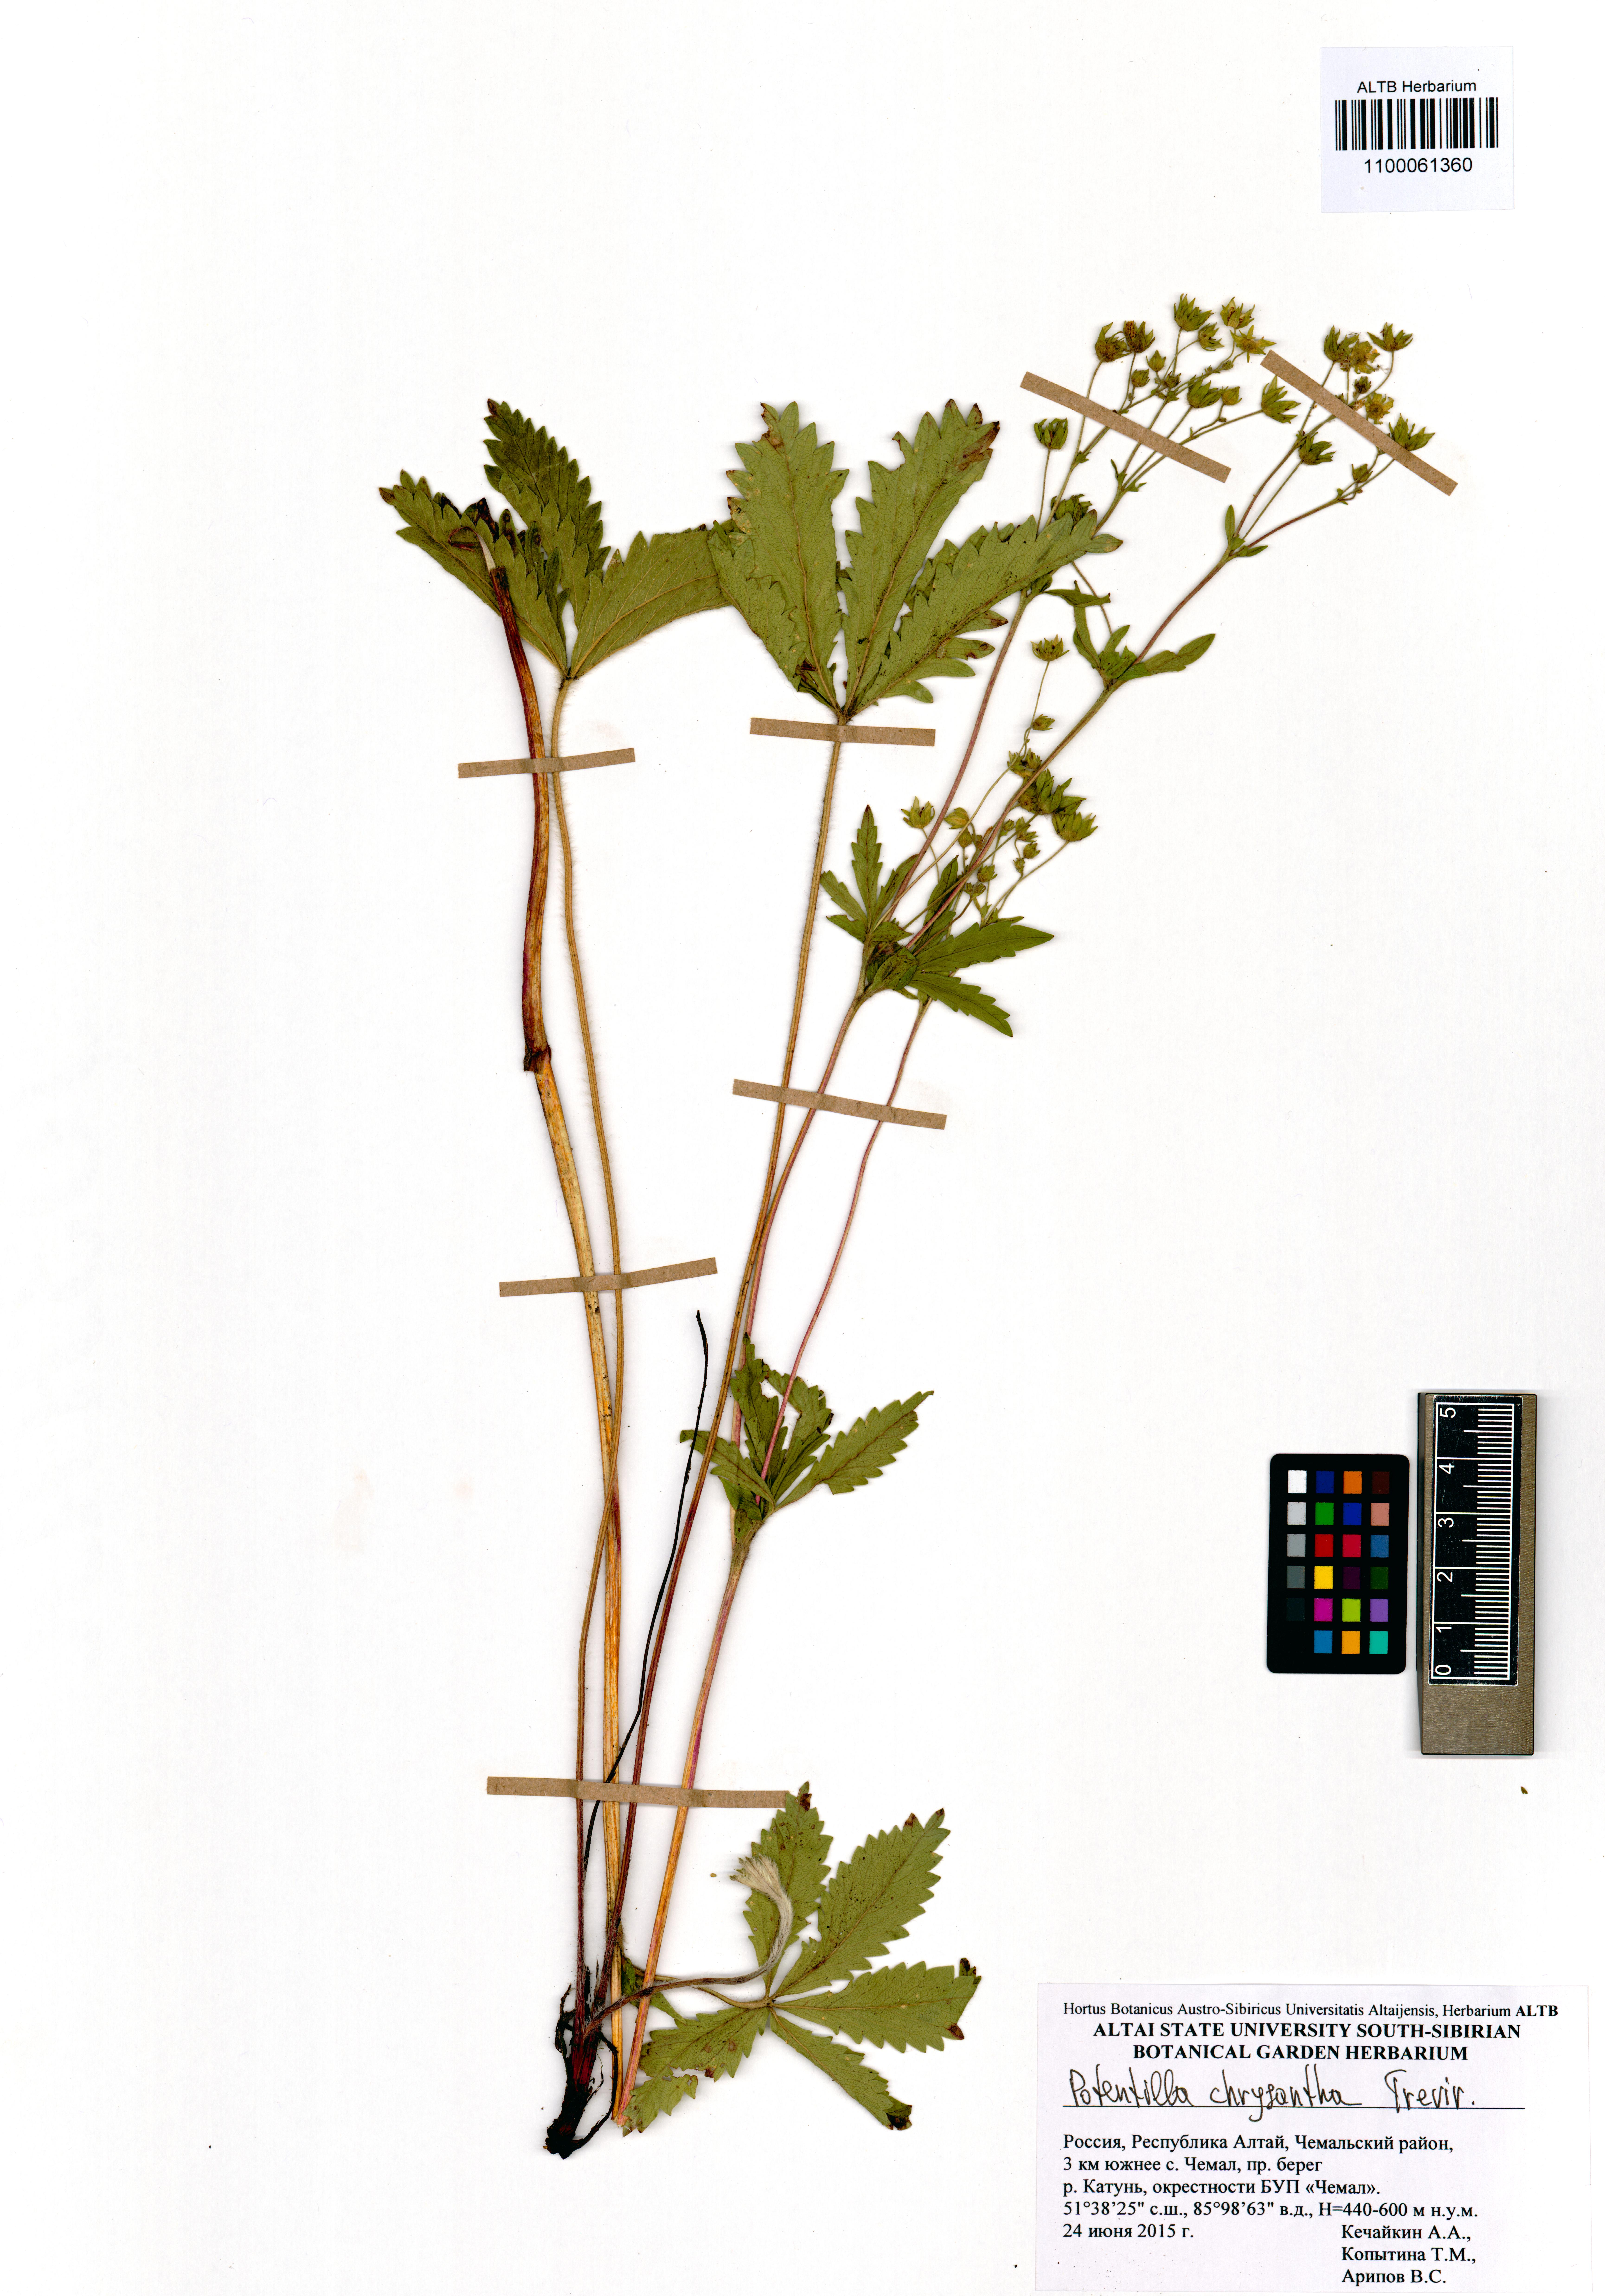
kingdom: Plantae
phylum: Tracheophyta
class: Magnoliopsida
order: Rosales
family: Rosaceae
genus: Potentilla
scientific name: Potentilla chrysantha
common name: Thuringian cinquefoil
